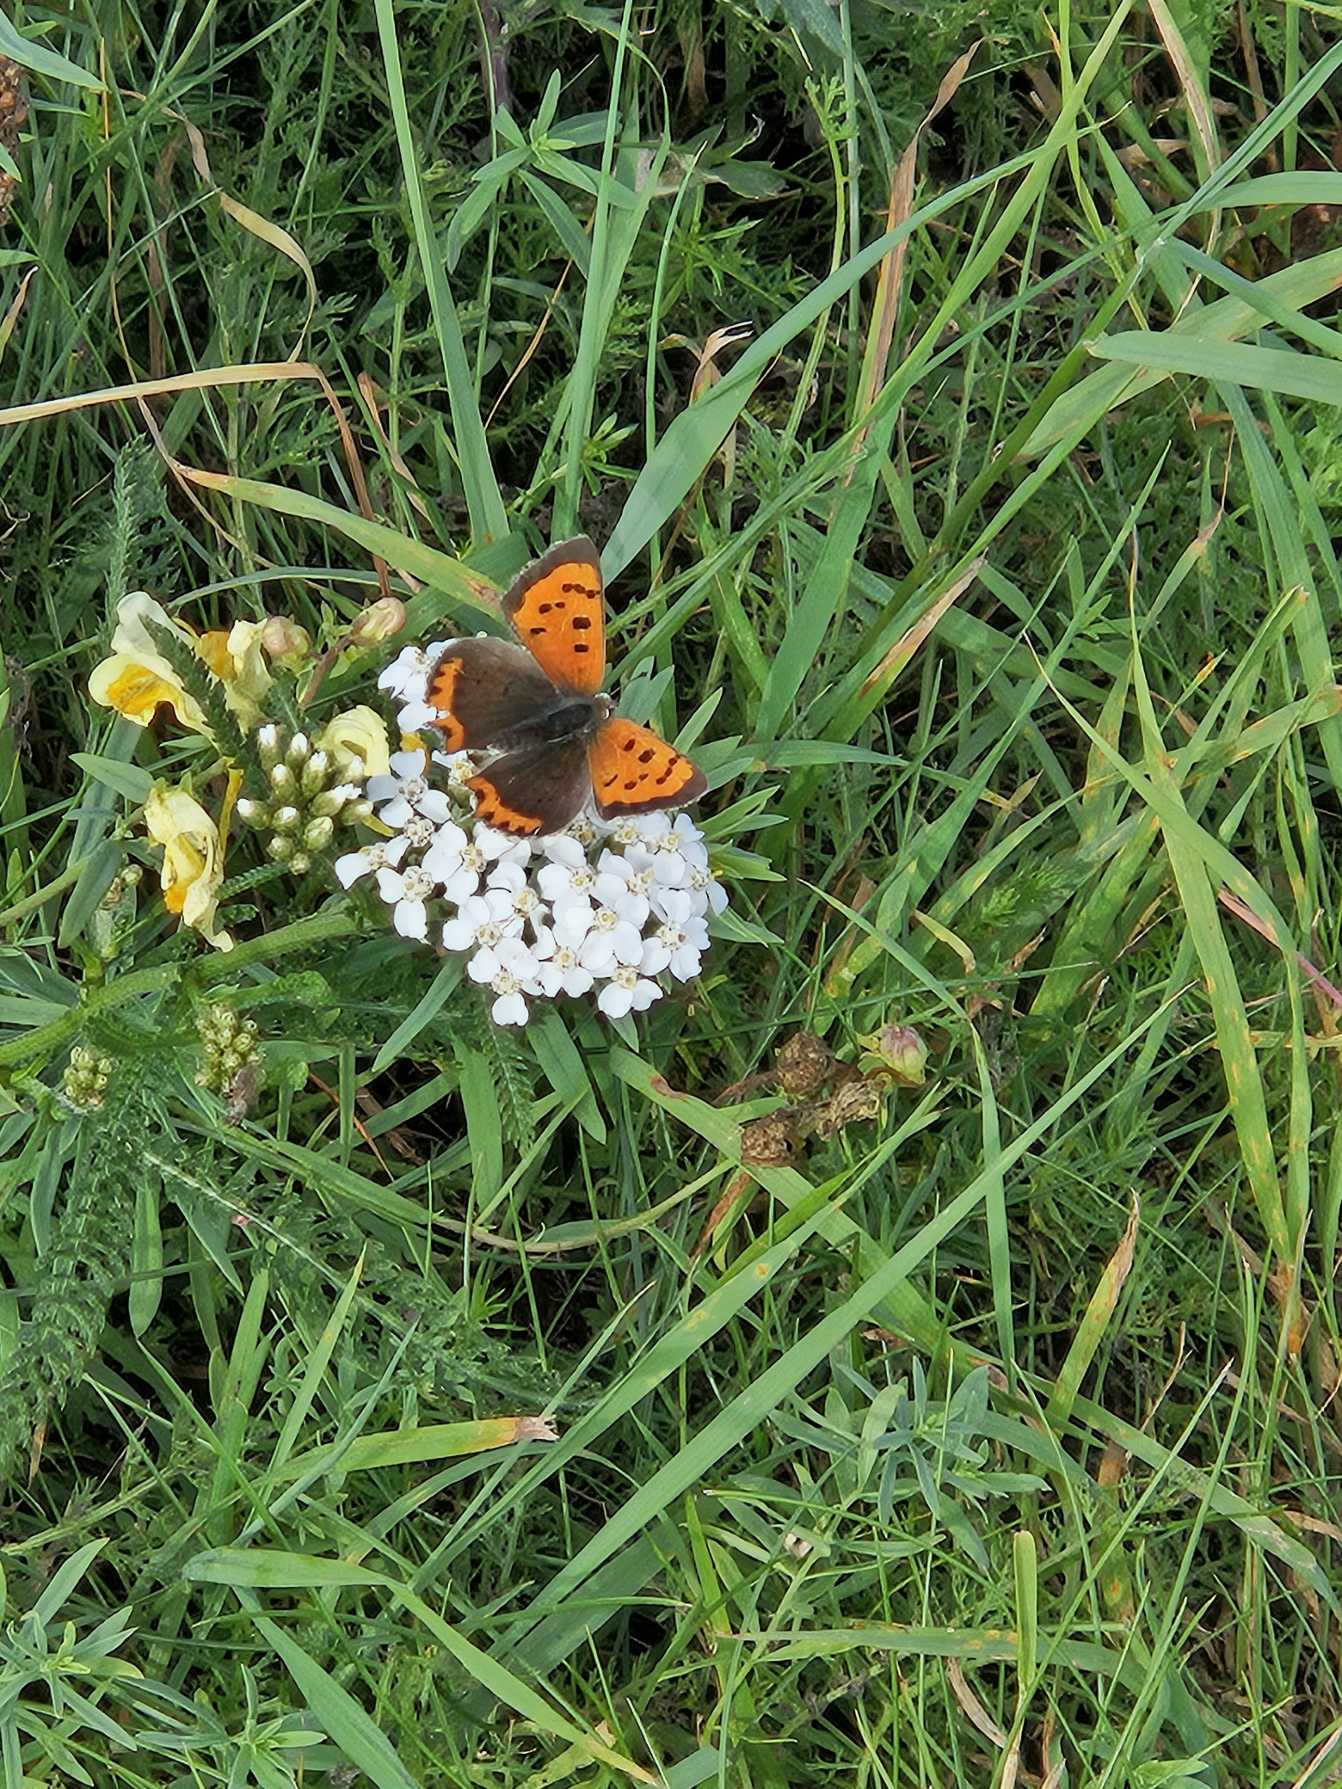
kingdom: Animalia
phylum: Arthropoda
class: Insecta
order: Lepidoptera
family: Lycaenidae
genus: Lycaena
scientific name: Lycaena phlaeas
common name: Lille ildfugl
